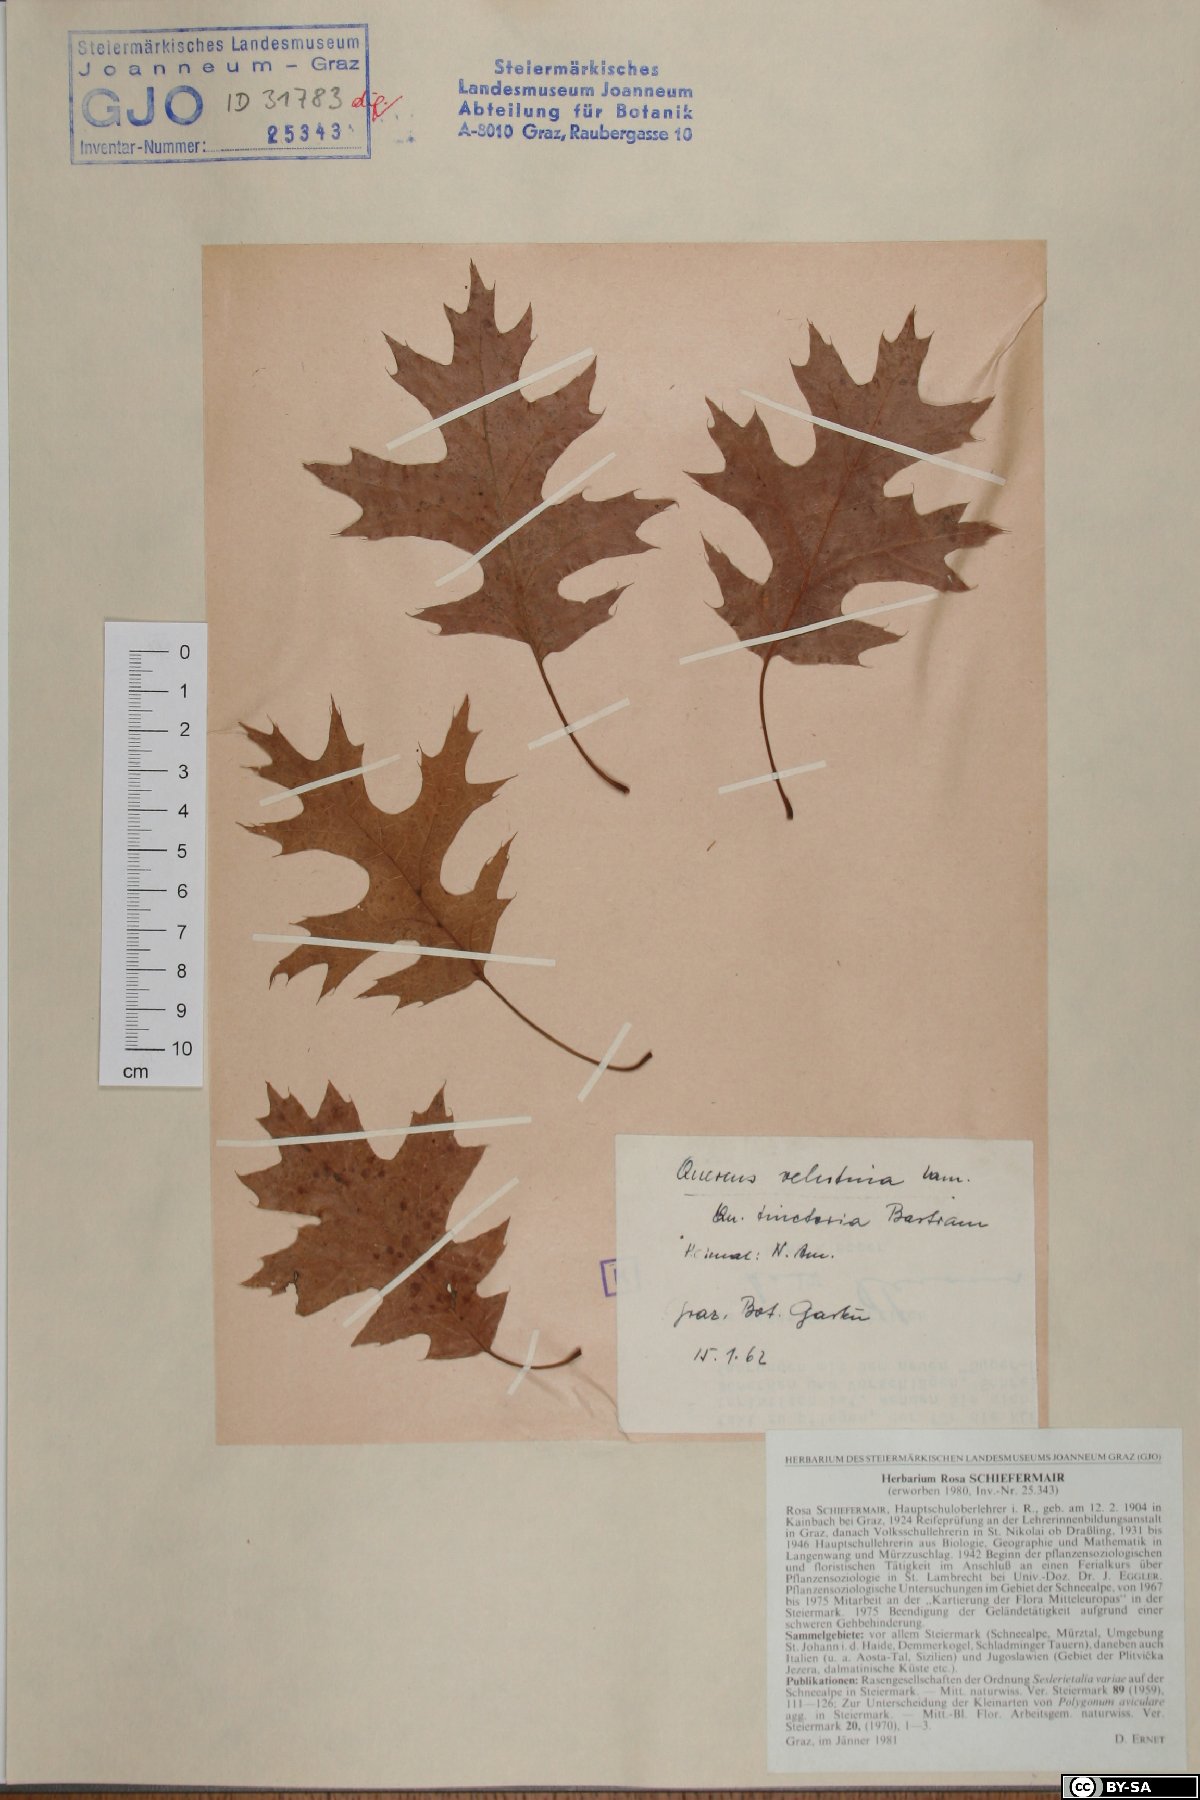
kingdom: Plantae
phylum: Tracheophyta
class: Magnoliopsida
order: Fagales
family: Fagaceae
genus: Quercus
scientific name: Quercus velutina
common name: Black oak
